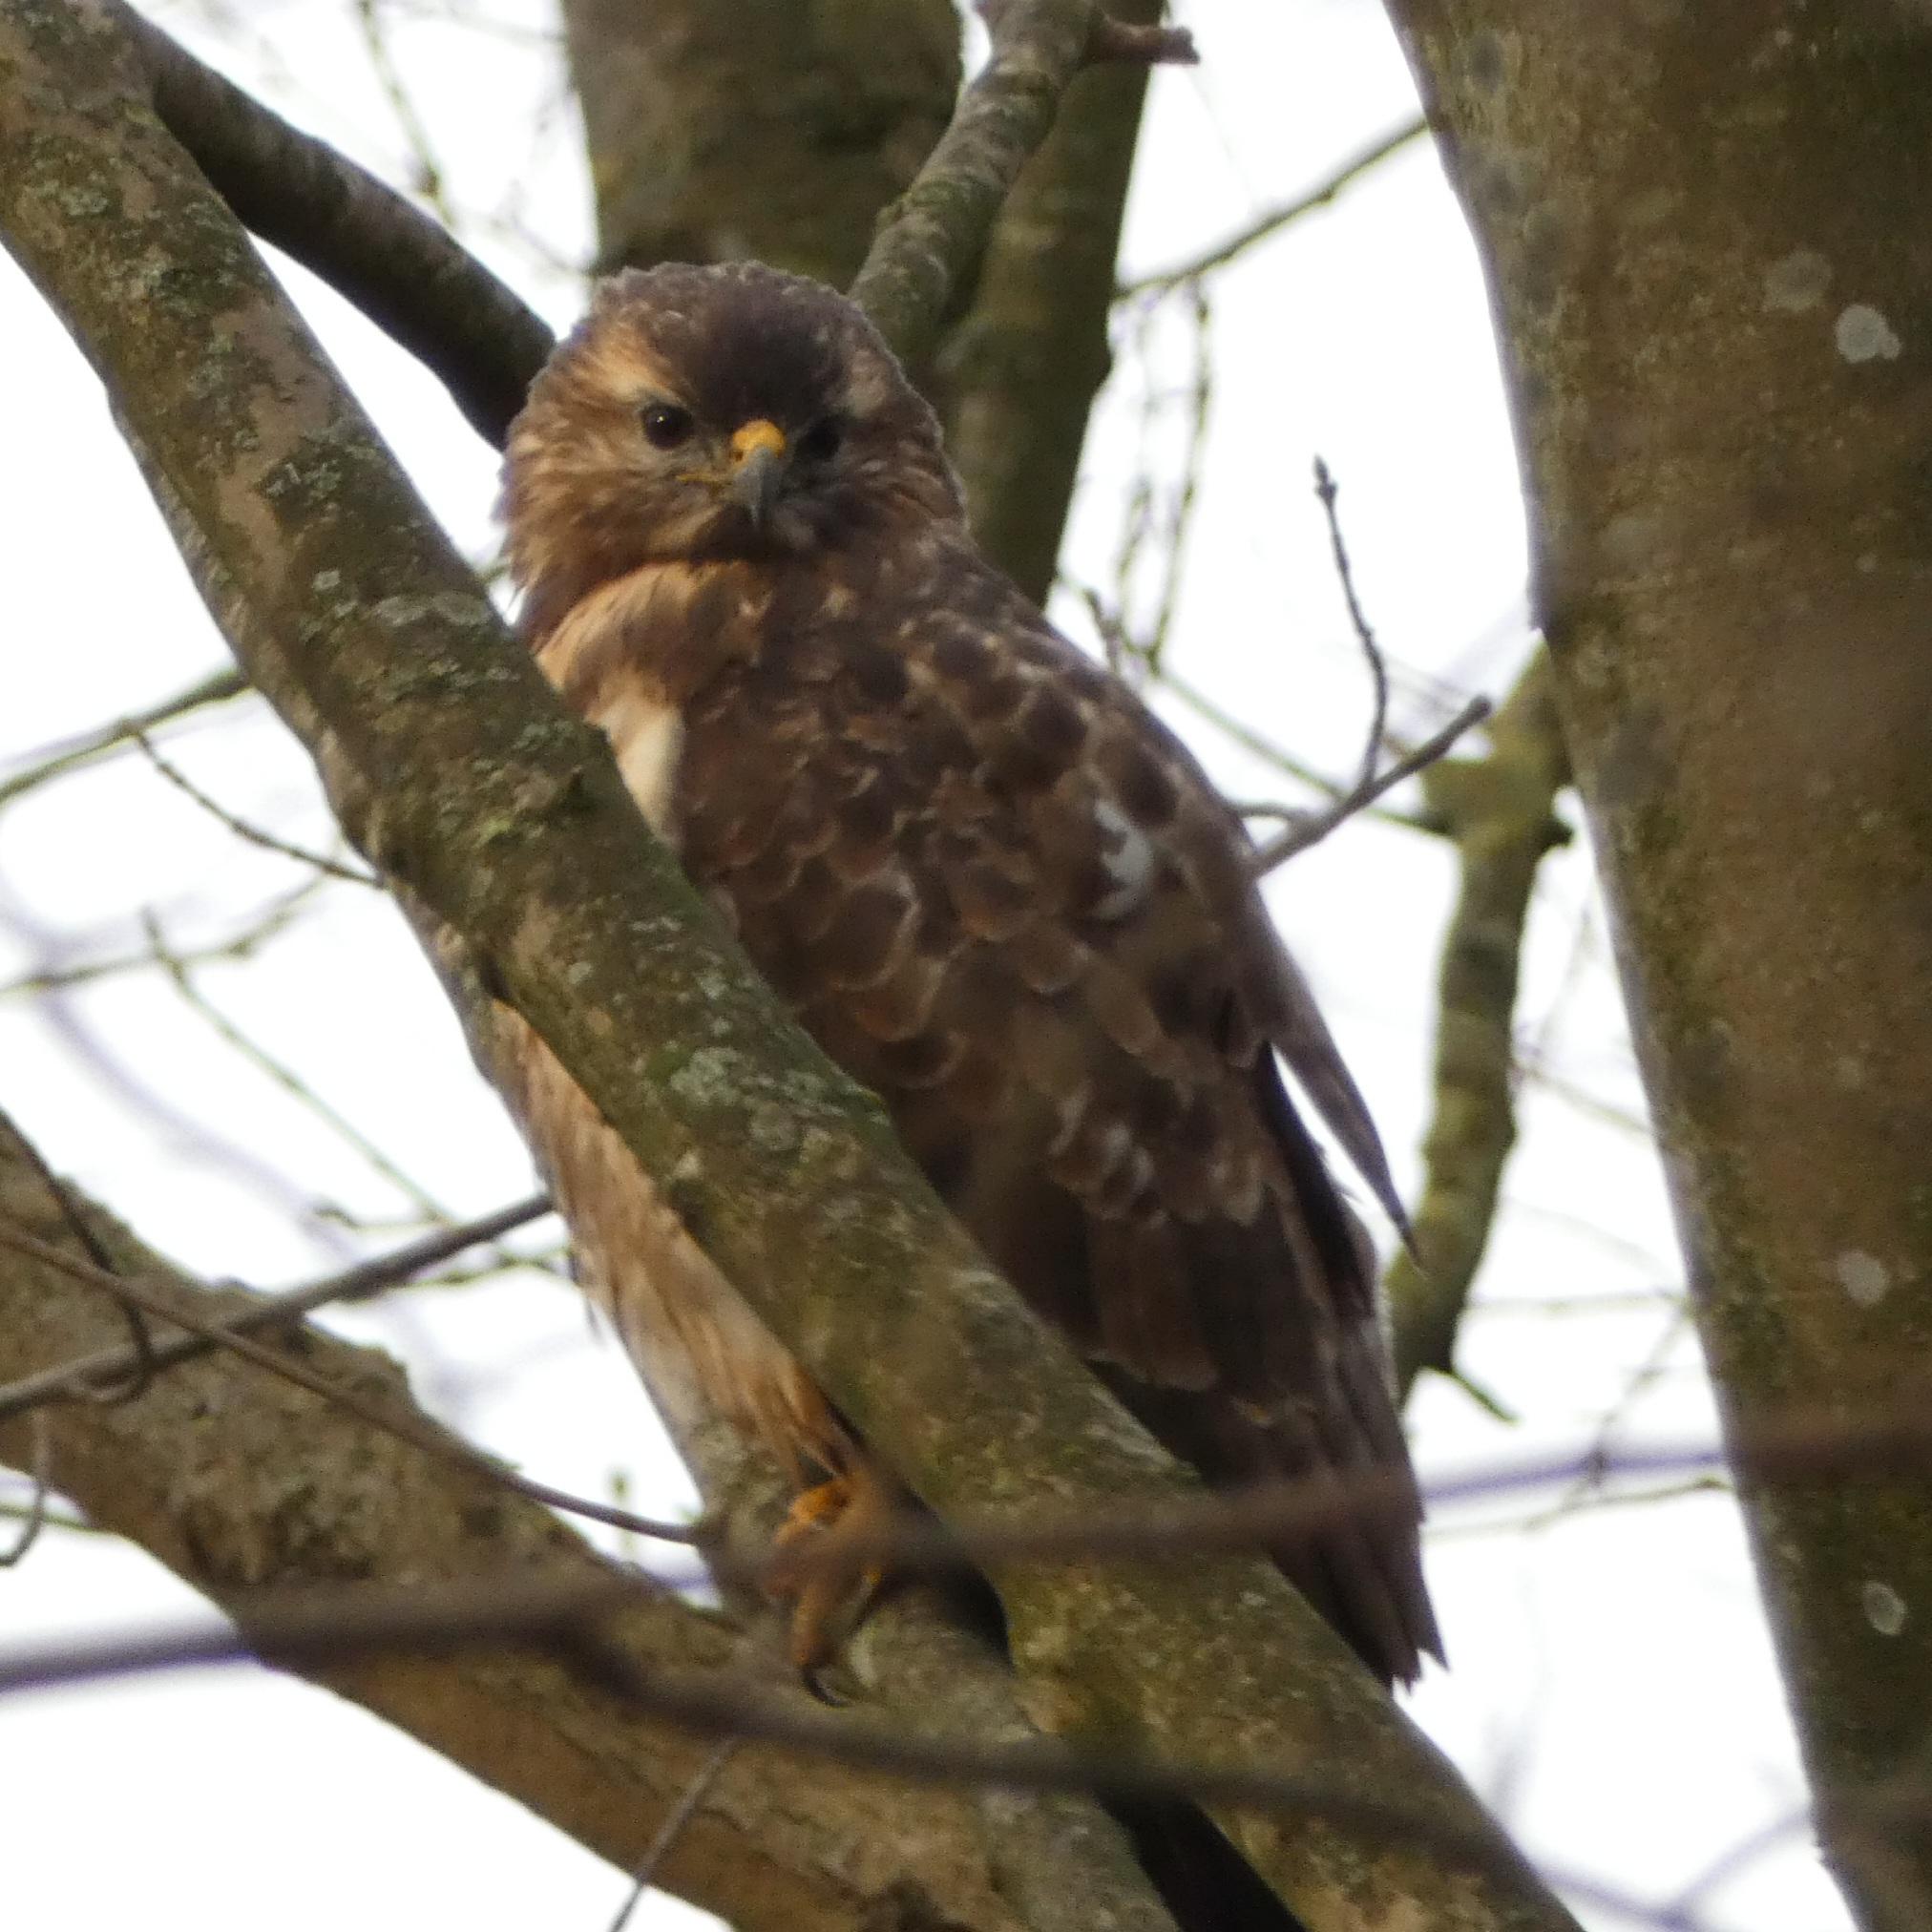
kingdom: Animalia
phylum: Chordata
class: Aves
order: Accipitriformes
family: Accipitridae
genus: Buteo
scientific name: Buteo buteo
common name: Musvåge
